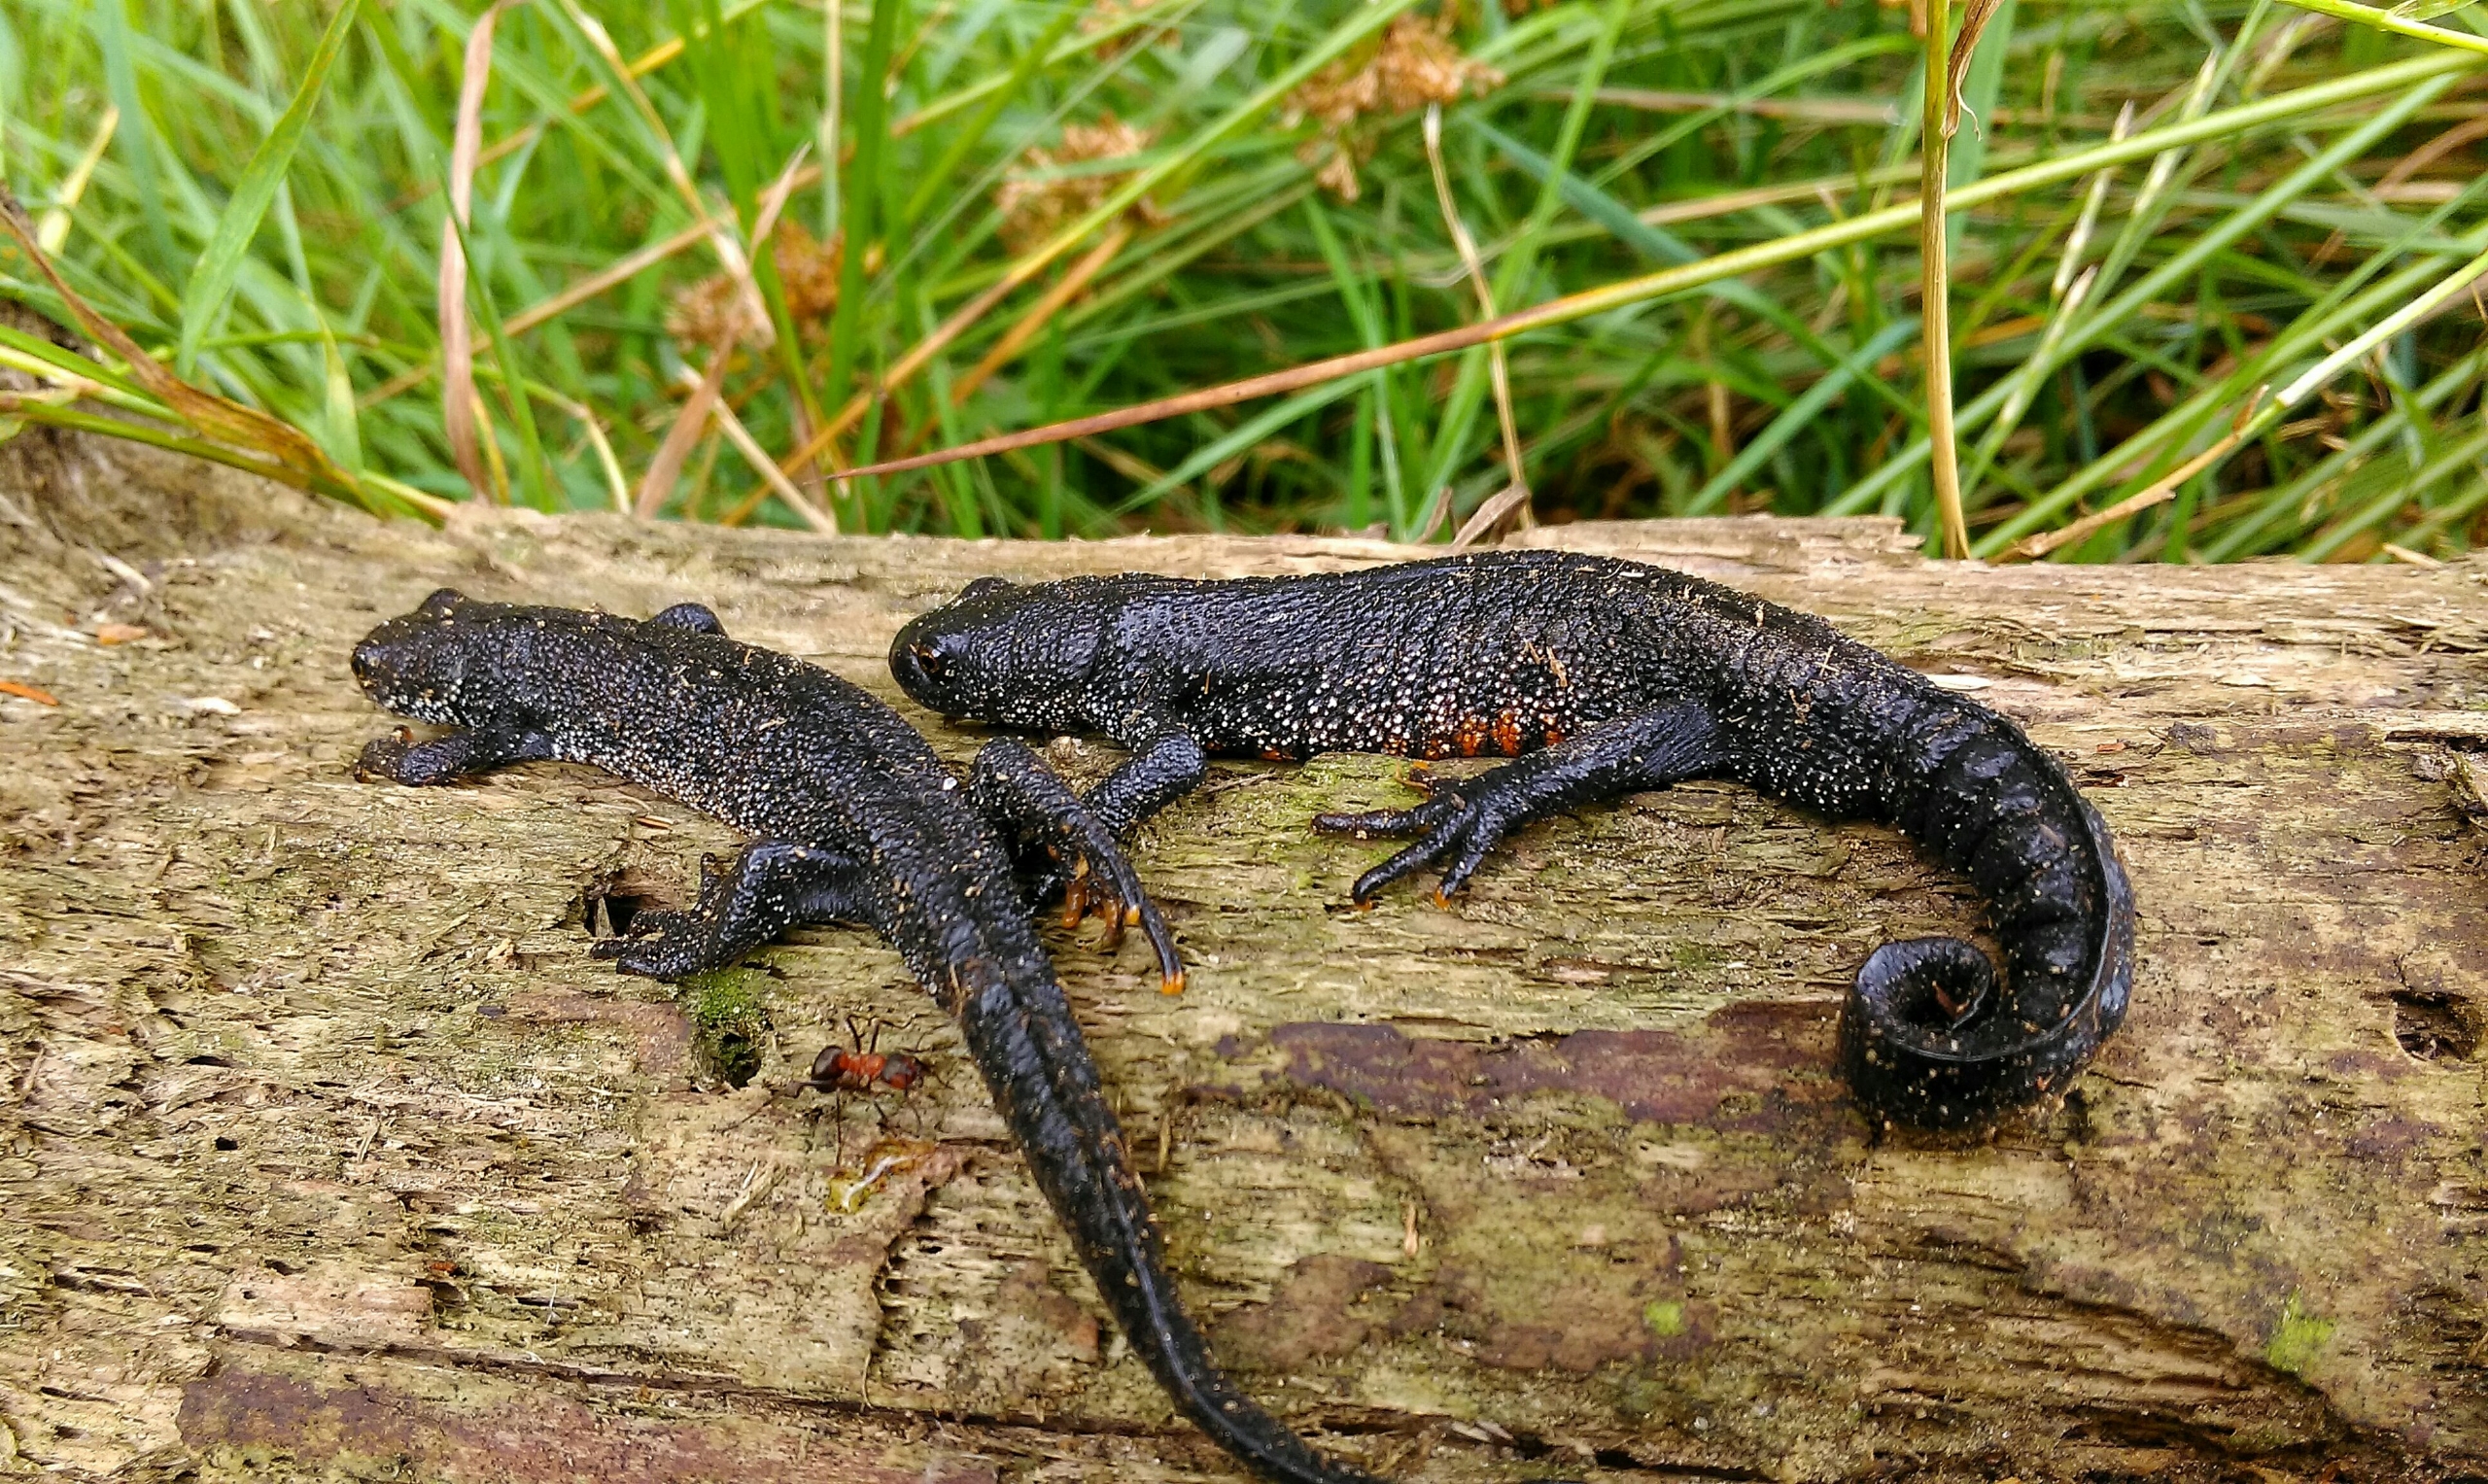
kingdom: Animalia
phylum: Chordata
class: Amphibia
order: Caudata
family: Salamandridae
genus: Triturus
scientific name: Triturus cristatus
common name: Stor vandsalamander
